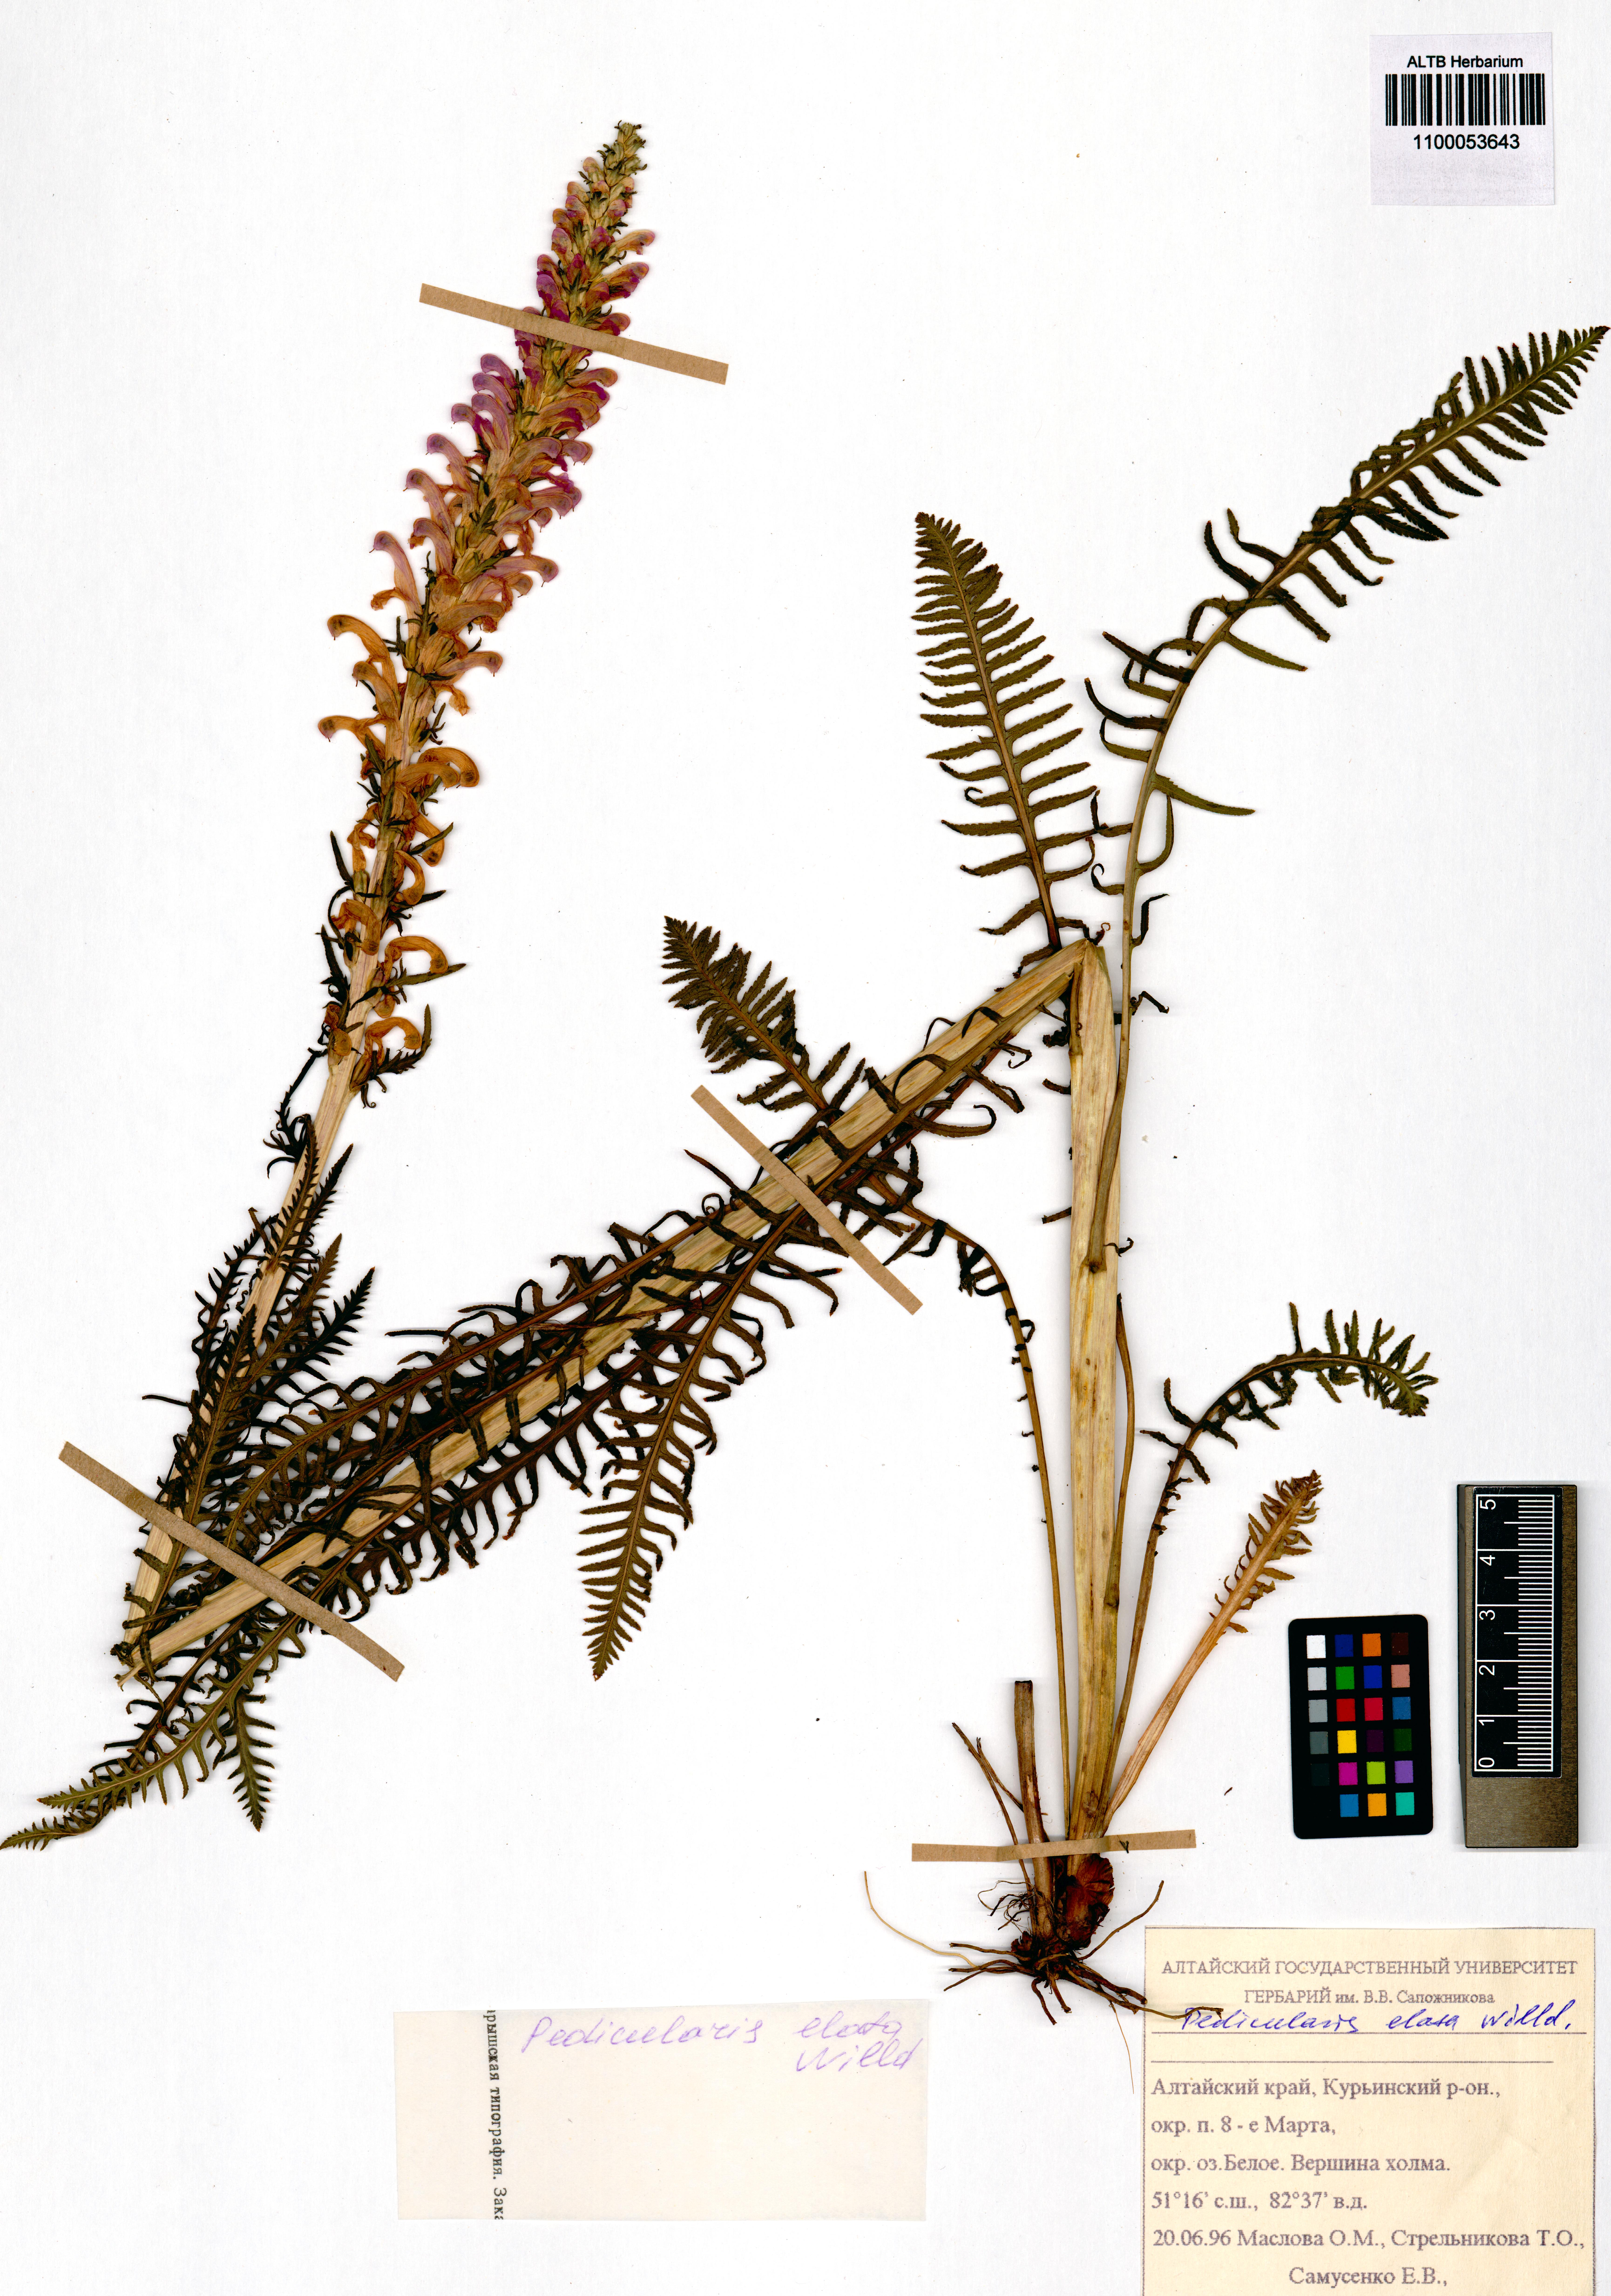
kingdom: Plantae
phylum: Tracheophyta
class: Magnoliopsida
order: Lamiales
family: Orobanchaceae
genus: Pedicularis
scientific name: Pedicularis elata
